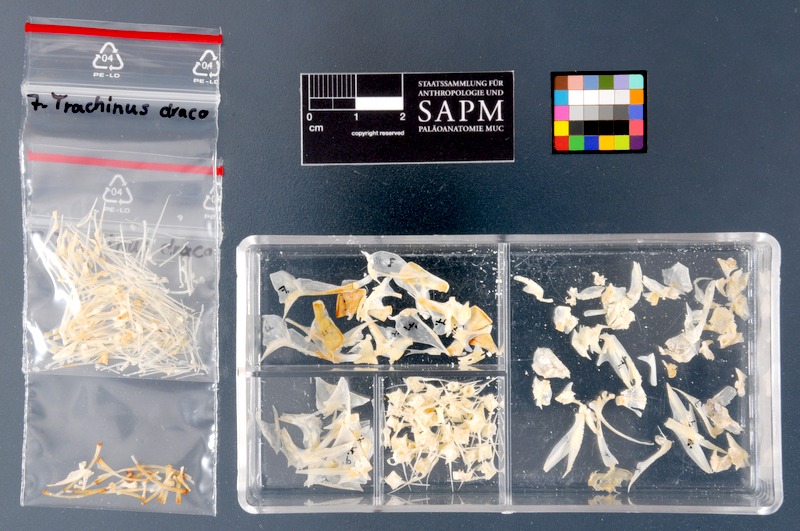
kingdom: Animalia
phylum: Chordata
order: Perciformes
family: Trachinidae
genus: Trachinus
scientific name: Trachinus draco
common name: Greater weever
